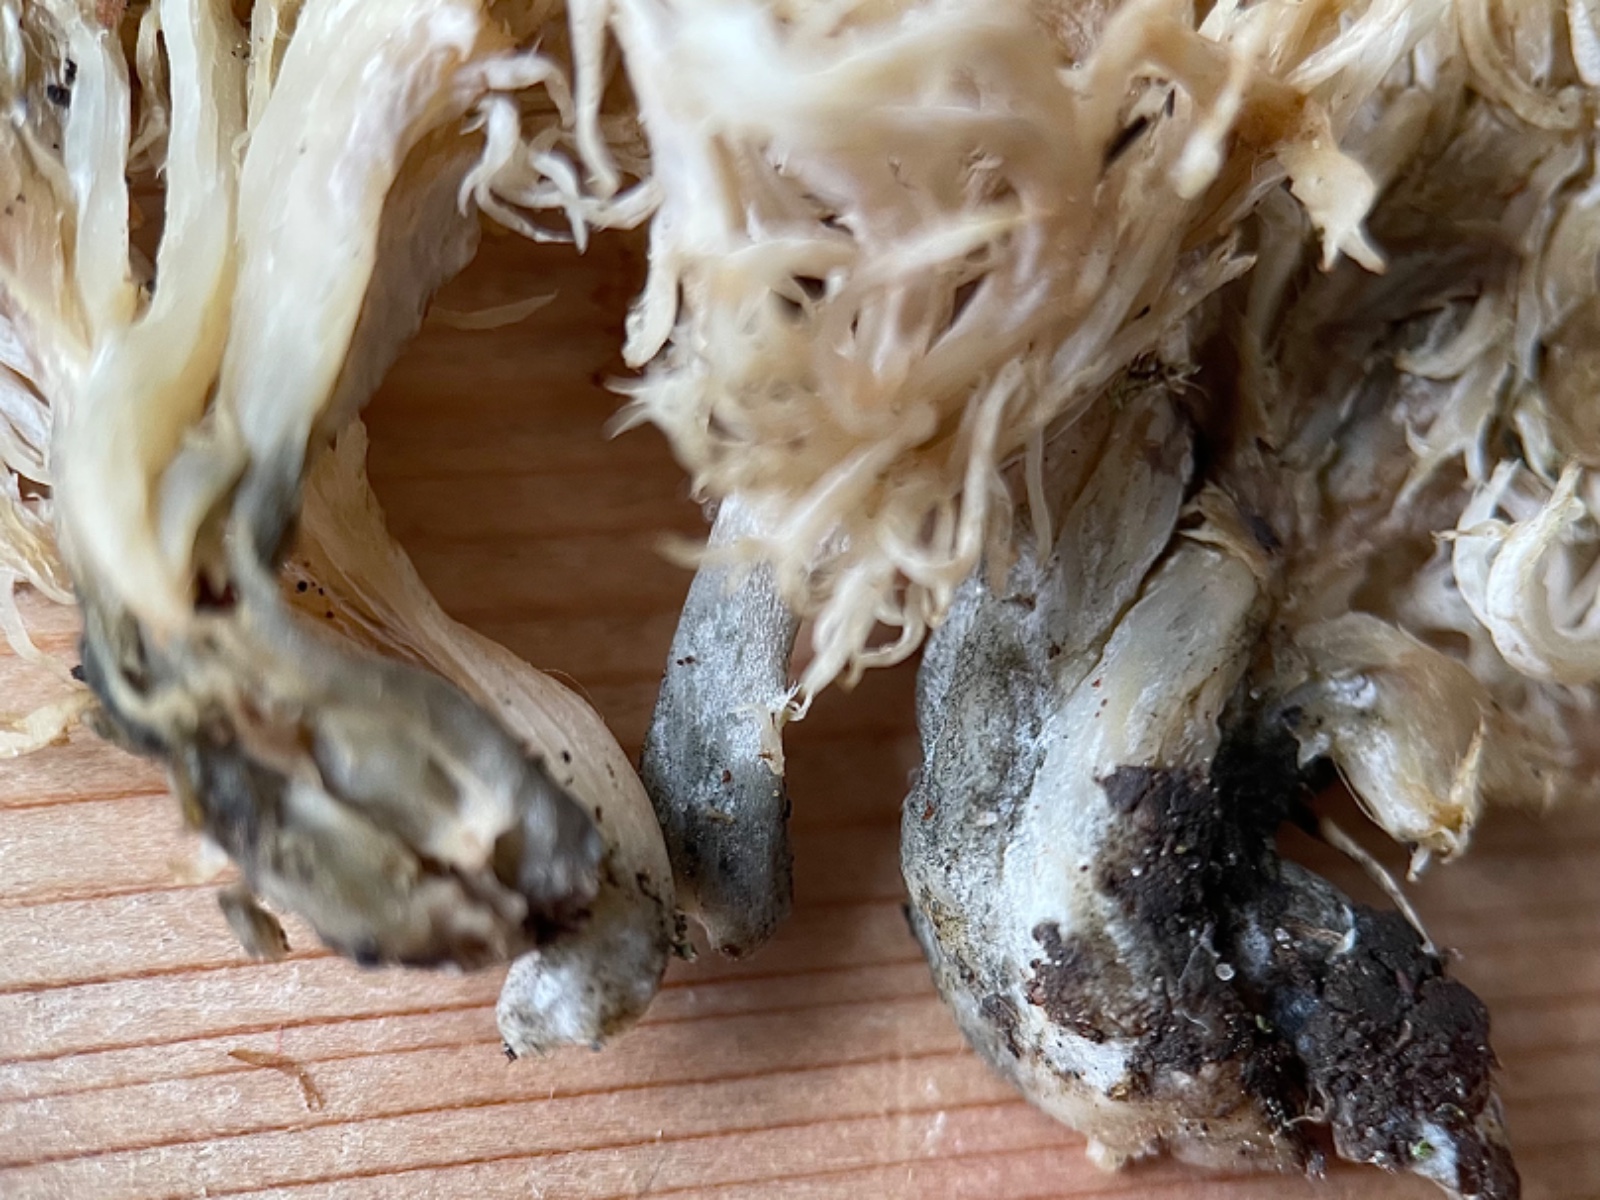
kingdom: Fungi
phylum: Ascomycota
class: Sordariomycetes
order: Sordariales
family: Helminthosphaeriaceae
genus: Helminthosphaeria
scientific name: Helminthosphaeria clavariarum
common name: trold-svampesnyltekerne
